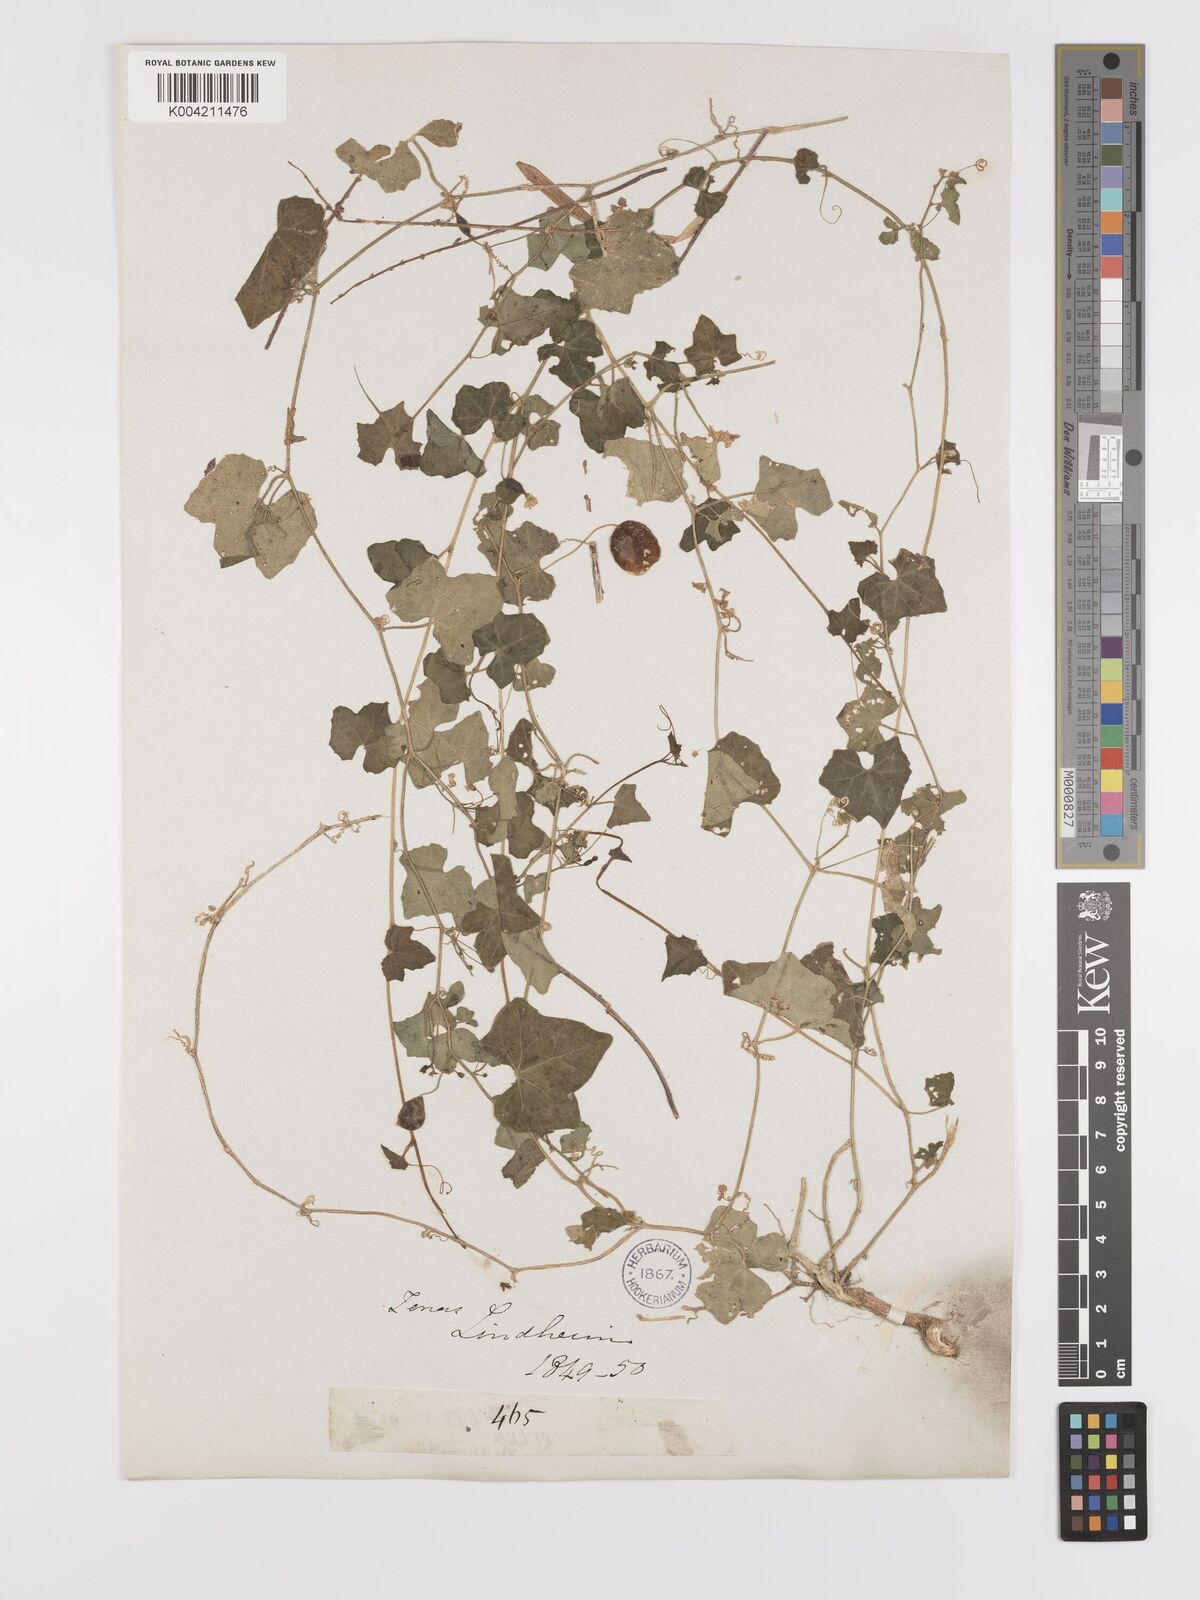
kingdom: Plantae
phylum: Tracheophyta
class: Magnoliopsida
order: Cucurbitales
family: Cucurbitaceae
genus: Melothria
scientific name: Melothria pendula
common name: Creeping-cucumber
